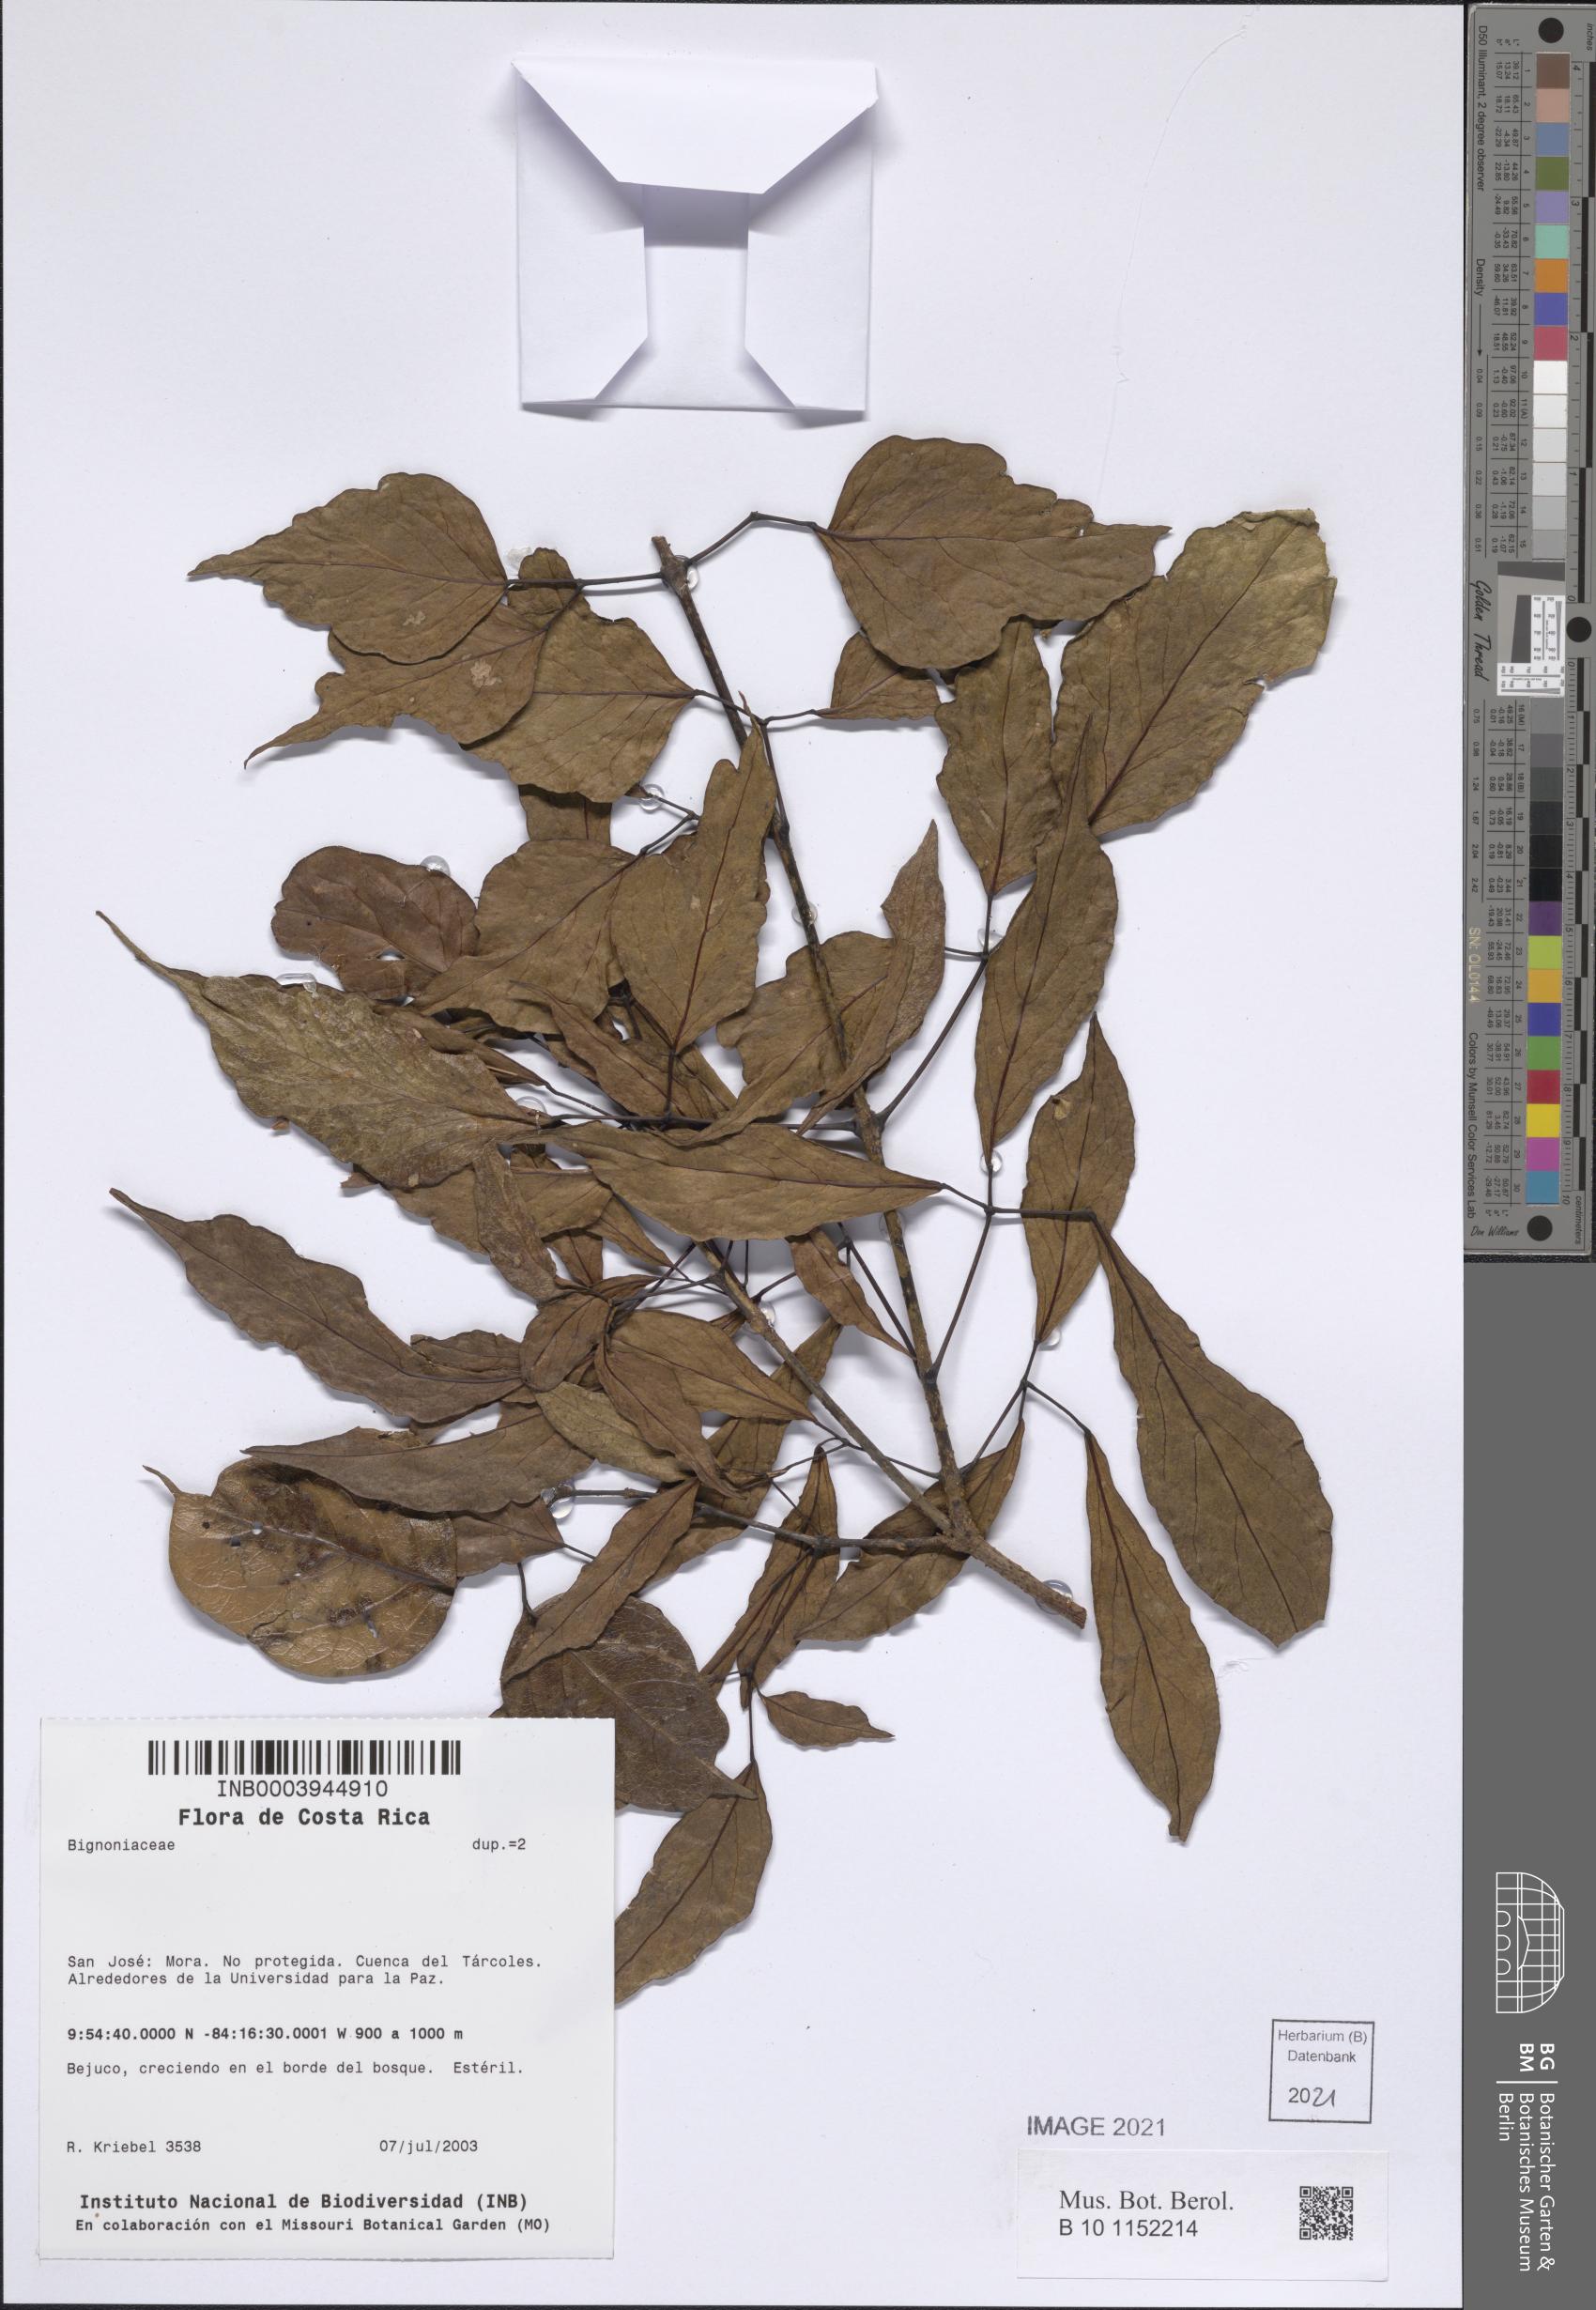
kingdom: Plantae
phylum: Tracheophyta
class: Magnoliopsida
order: Lamiales
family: Bignoniaceae
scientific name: Bignoniaceae
